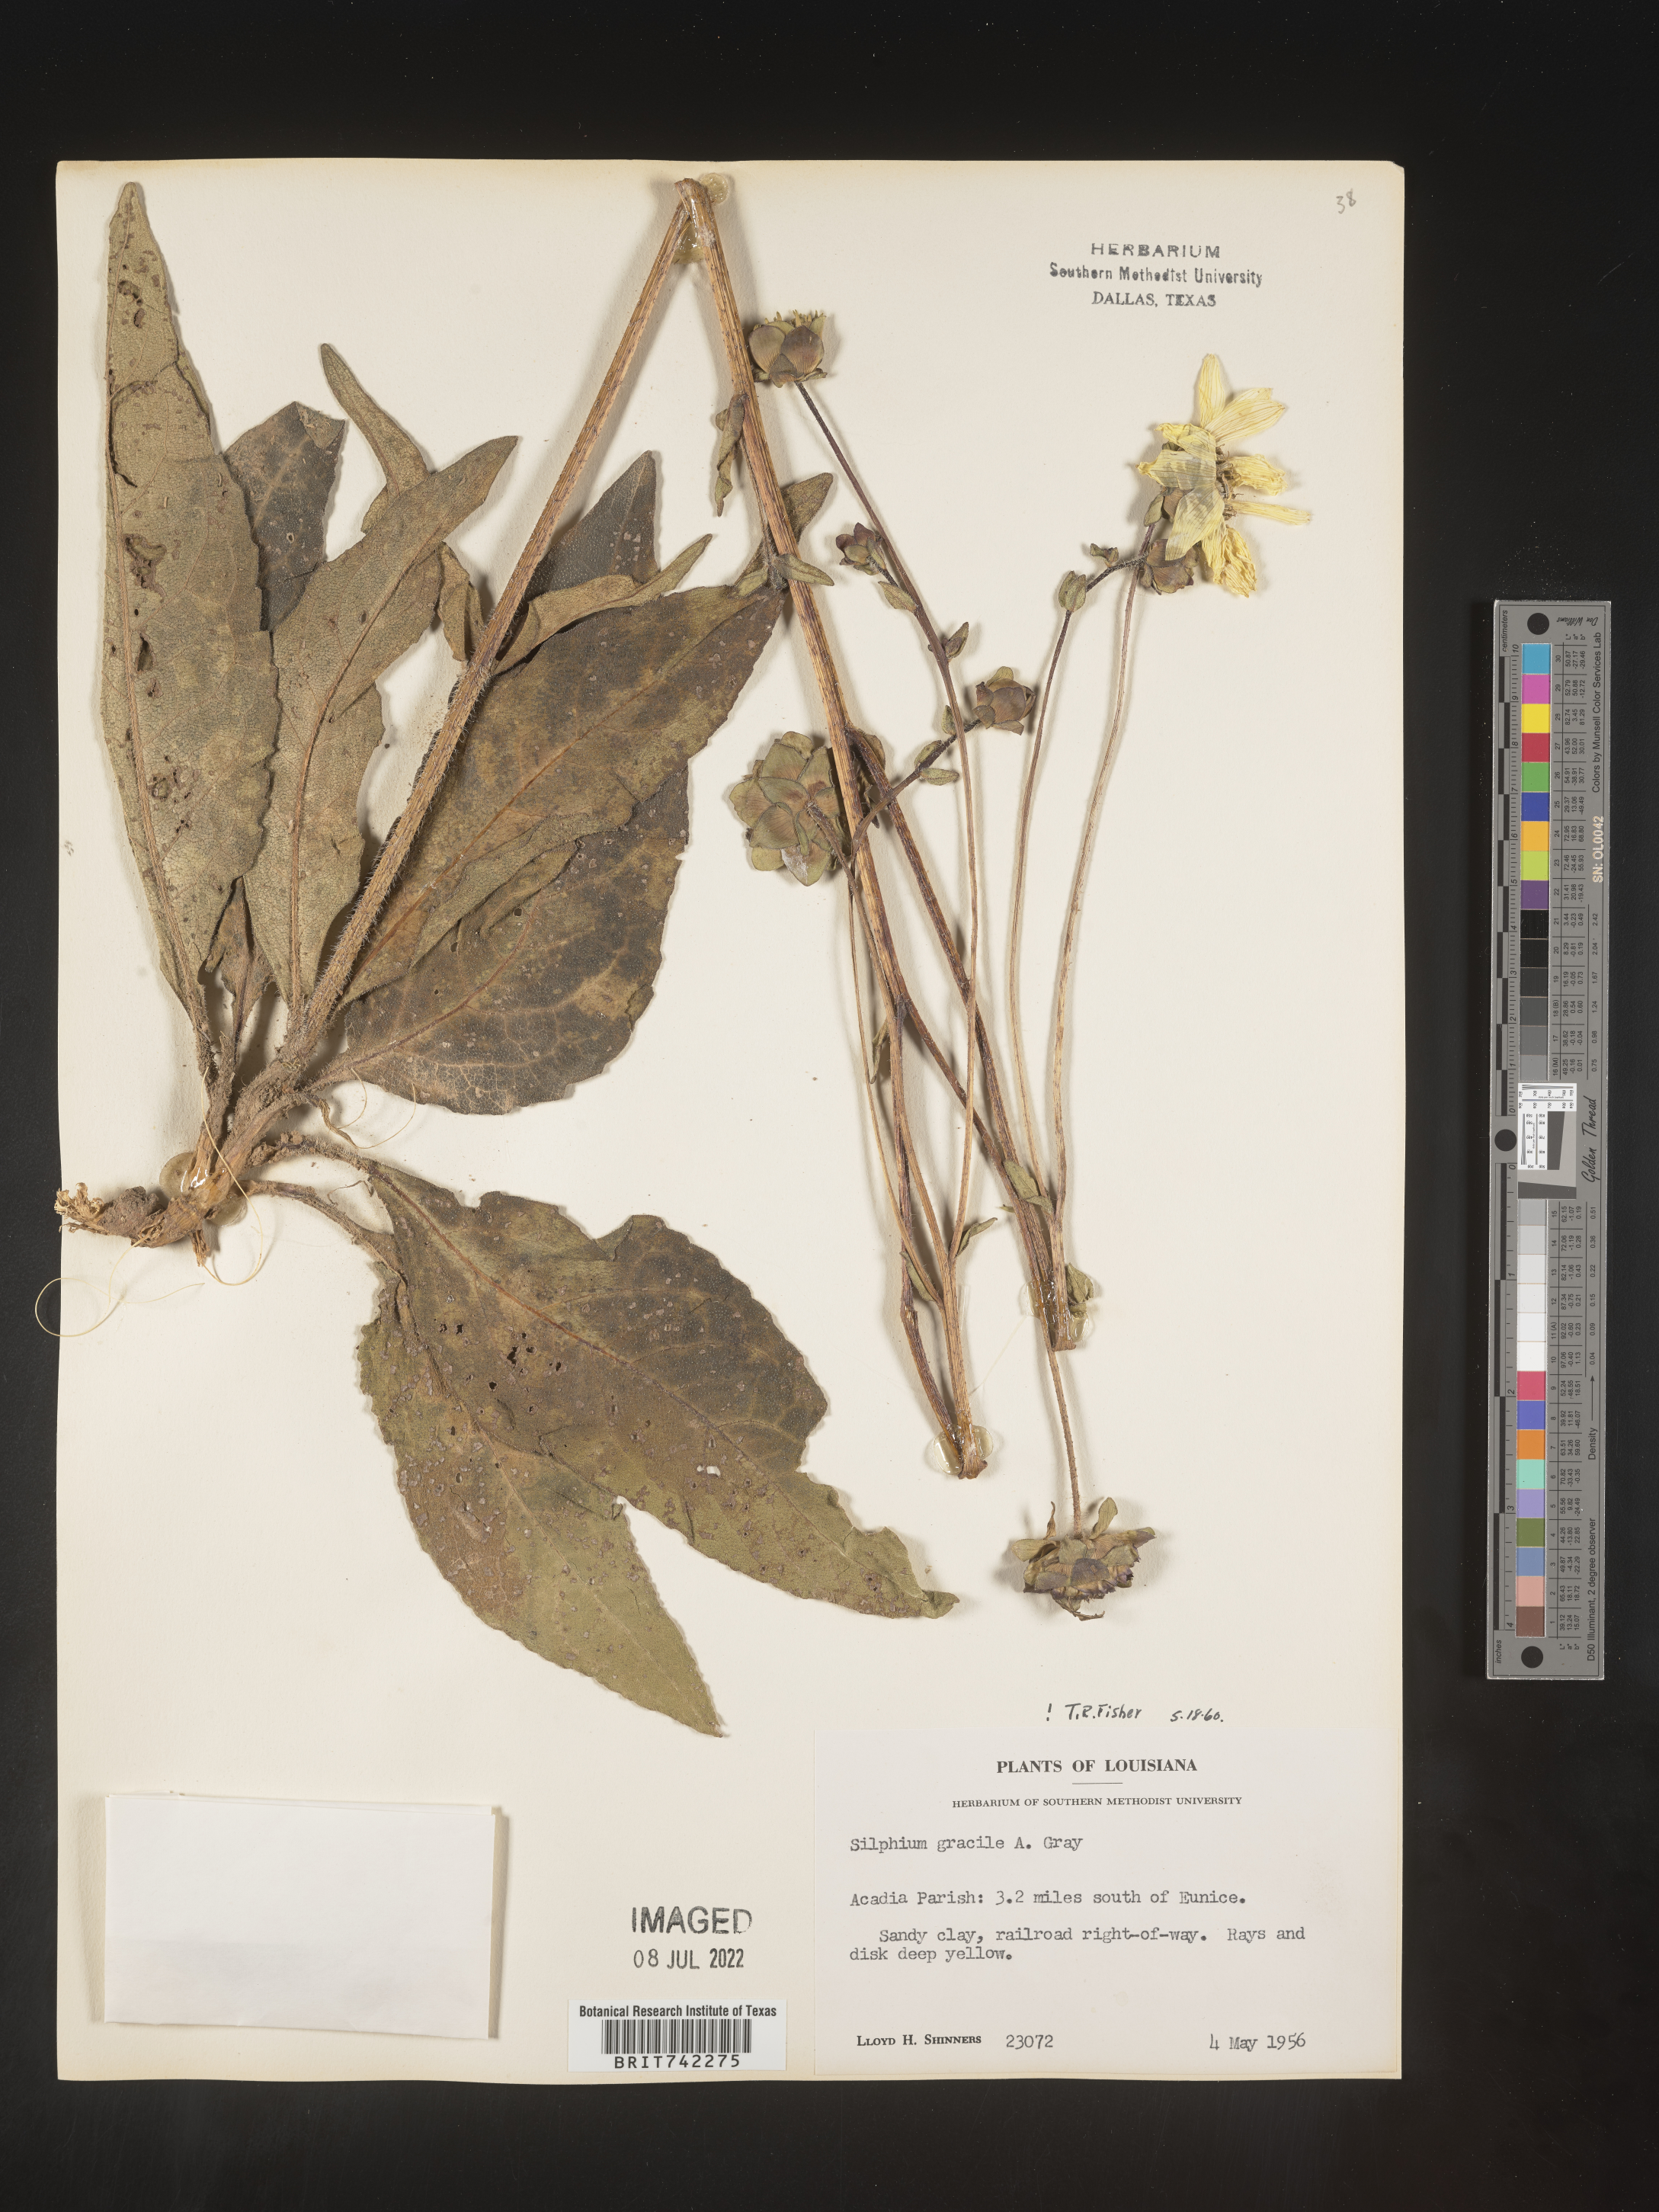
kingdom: Plantae
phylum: Tracheophyta
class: Magnoliopsida
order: Asterales
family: Asteraceae
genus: Silphium
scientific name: Silphium radula
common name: Roughleaf rosinweed
